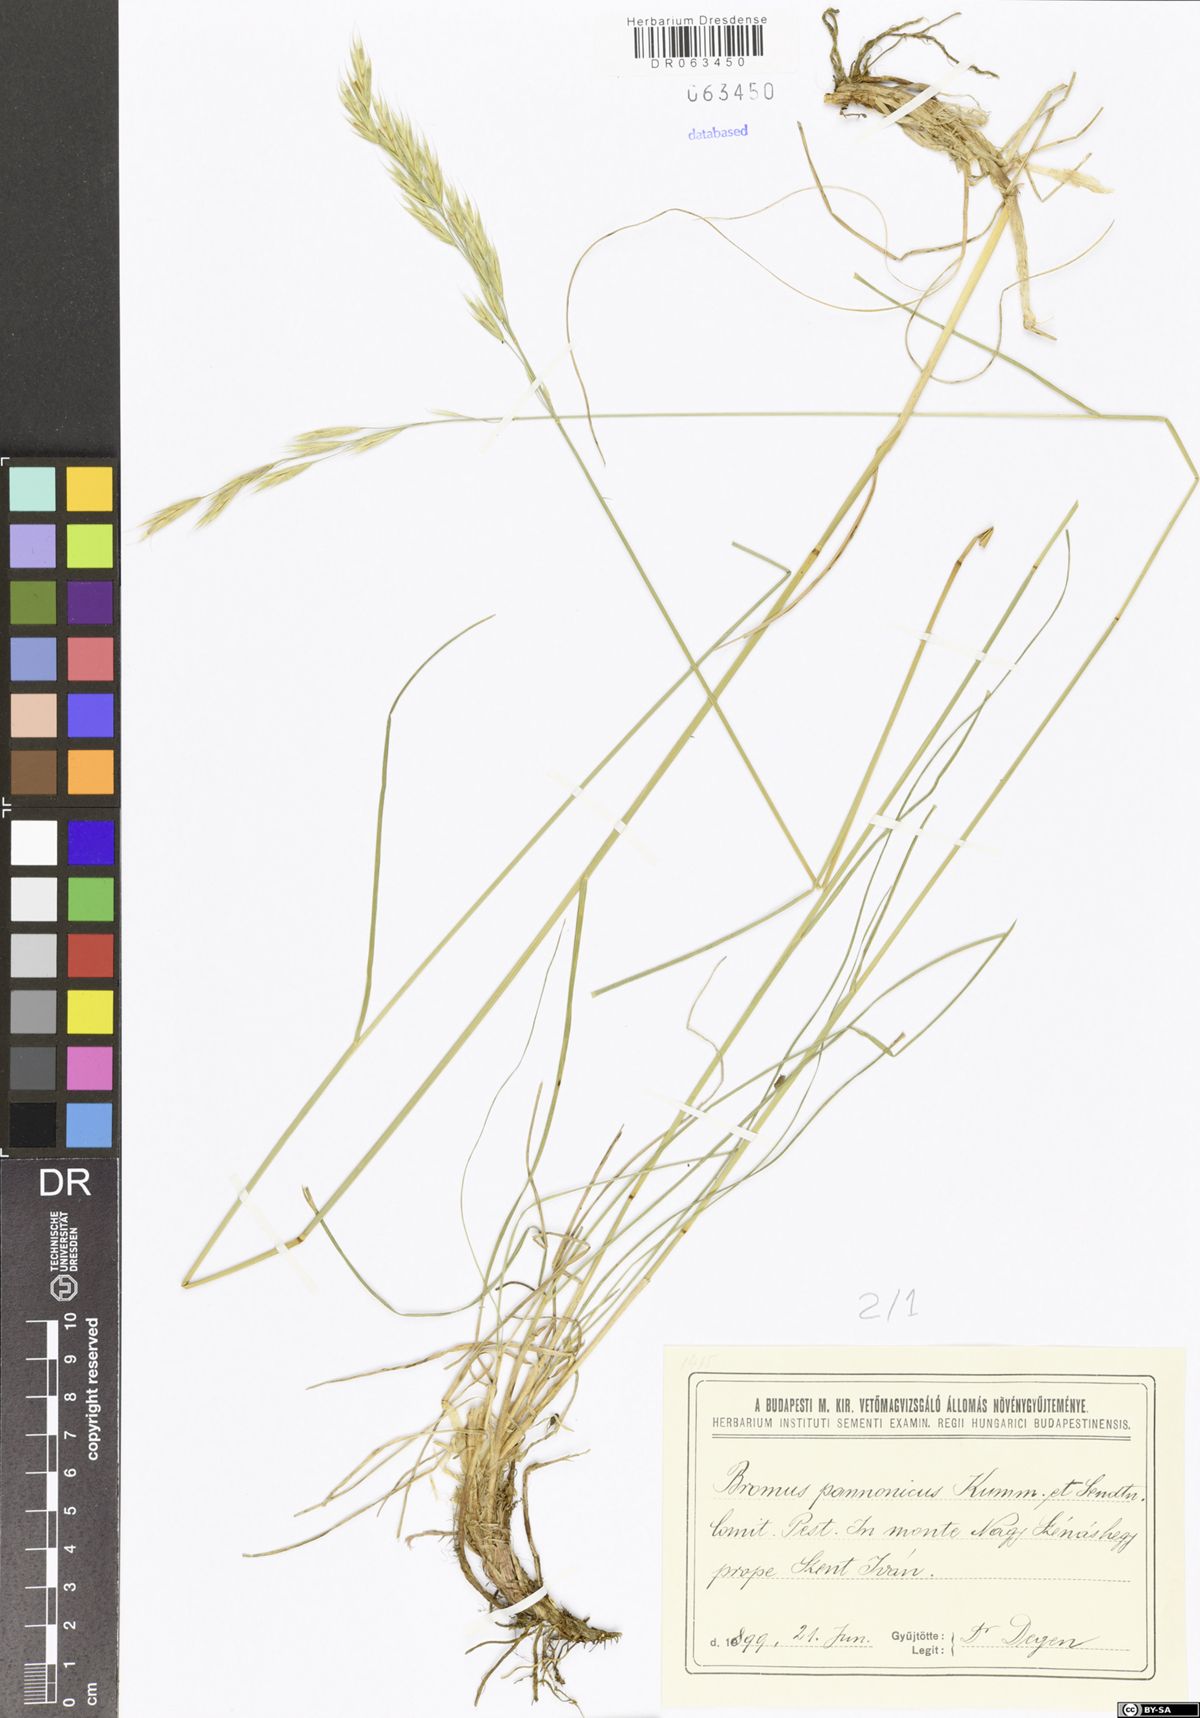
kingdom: Plantae
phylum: Tracheophyta
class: Liliopsida
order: Poales
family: Poaceae
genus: Bromus
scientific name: Bromus pannonicus
